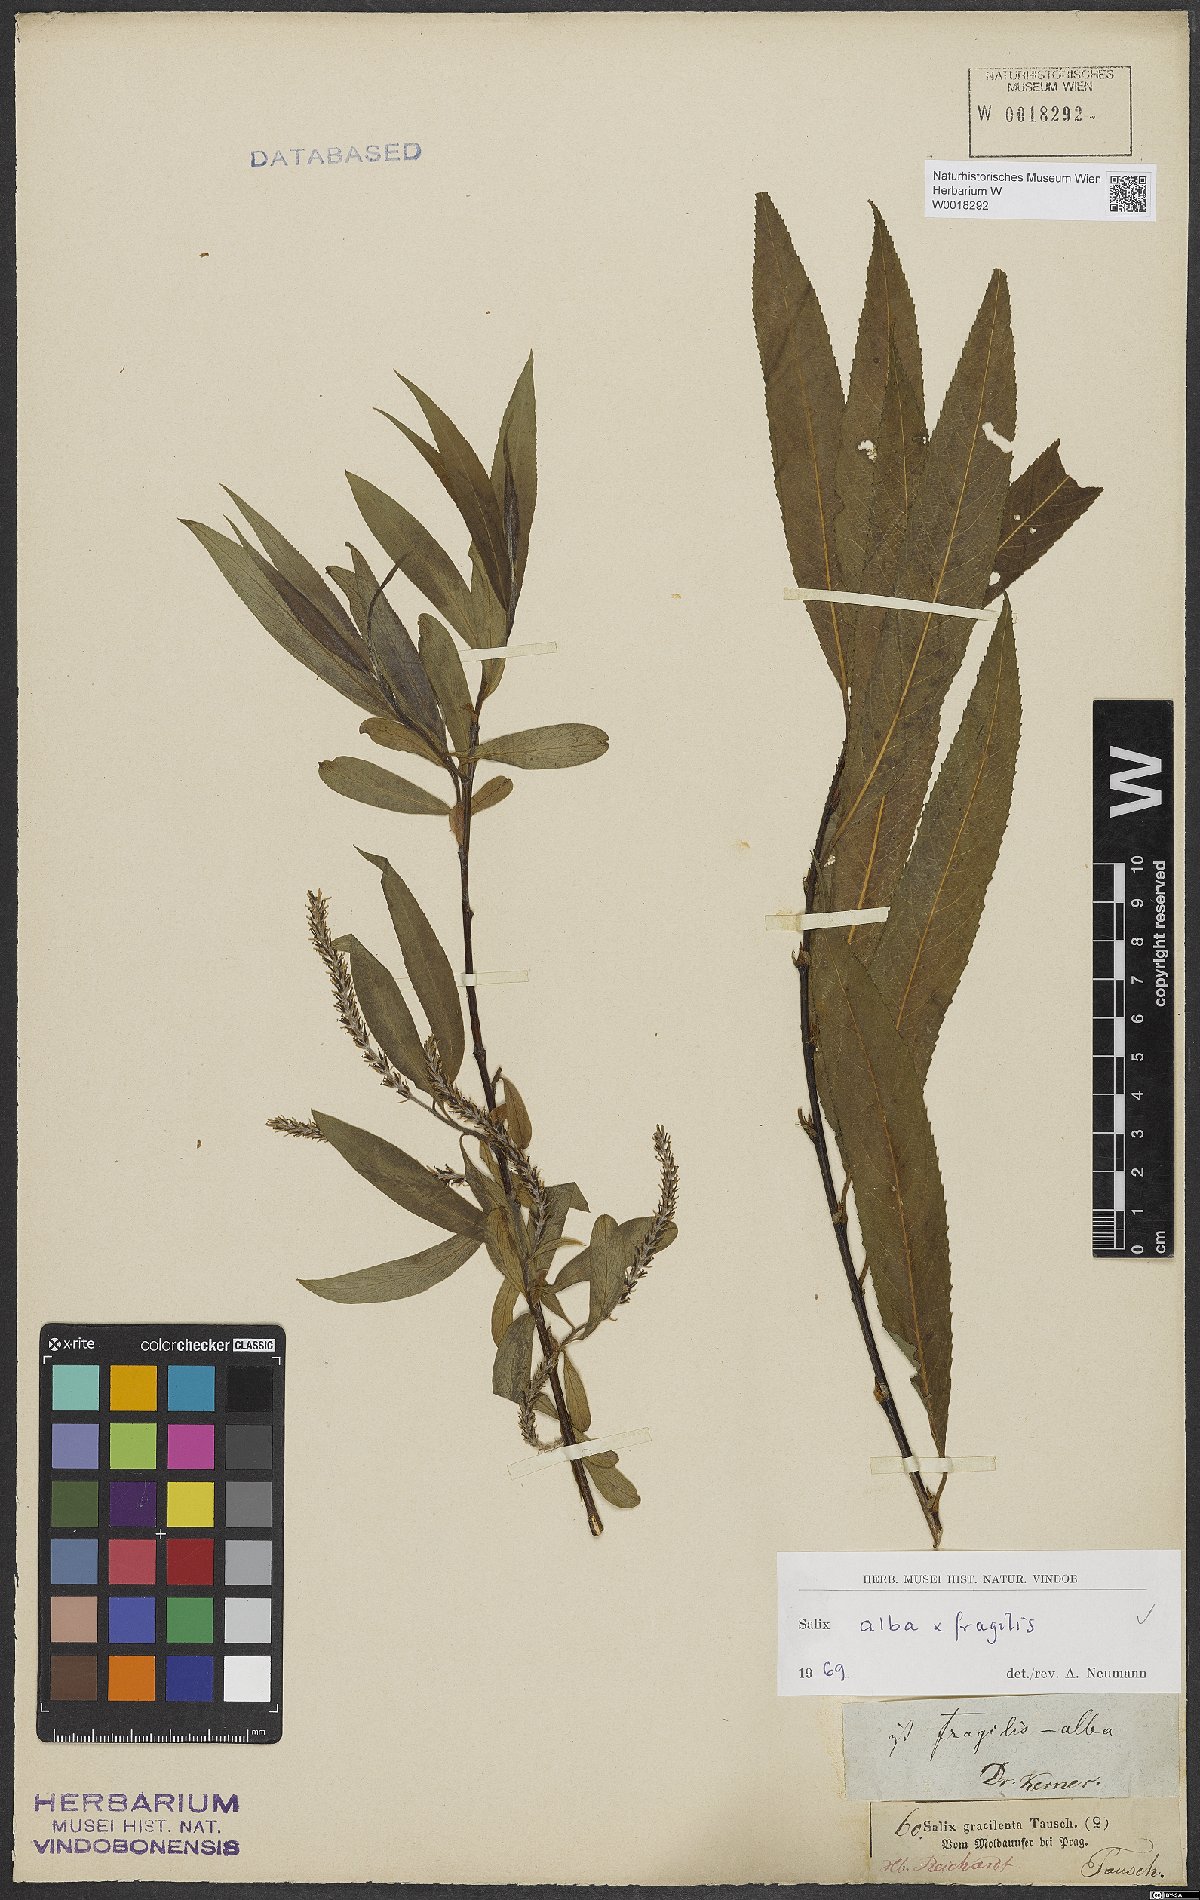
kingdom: Plantae
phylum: Tracheophyta
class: Magnoliopsida
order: Malpighiales
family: Salicaceae
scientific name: Salicaceae
